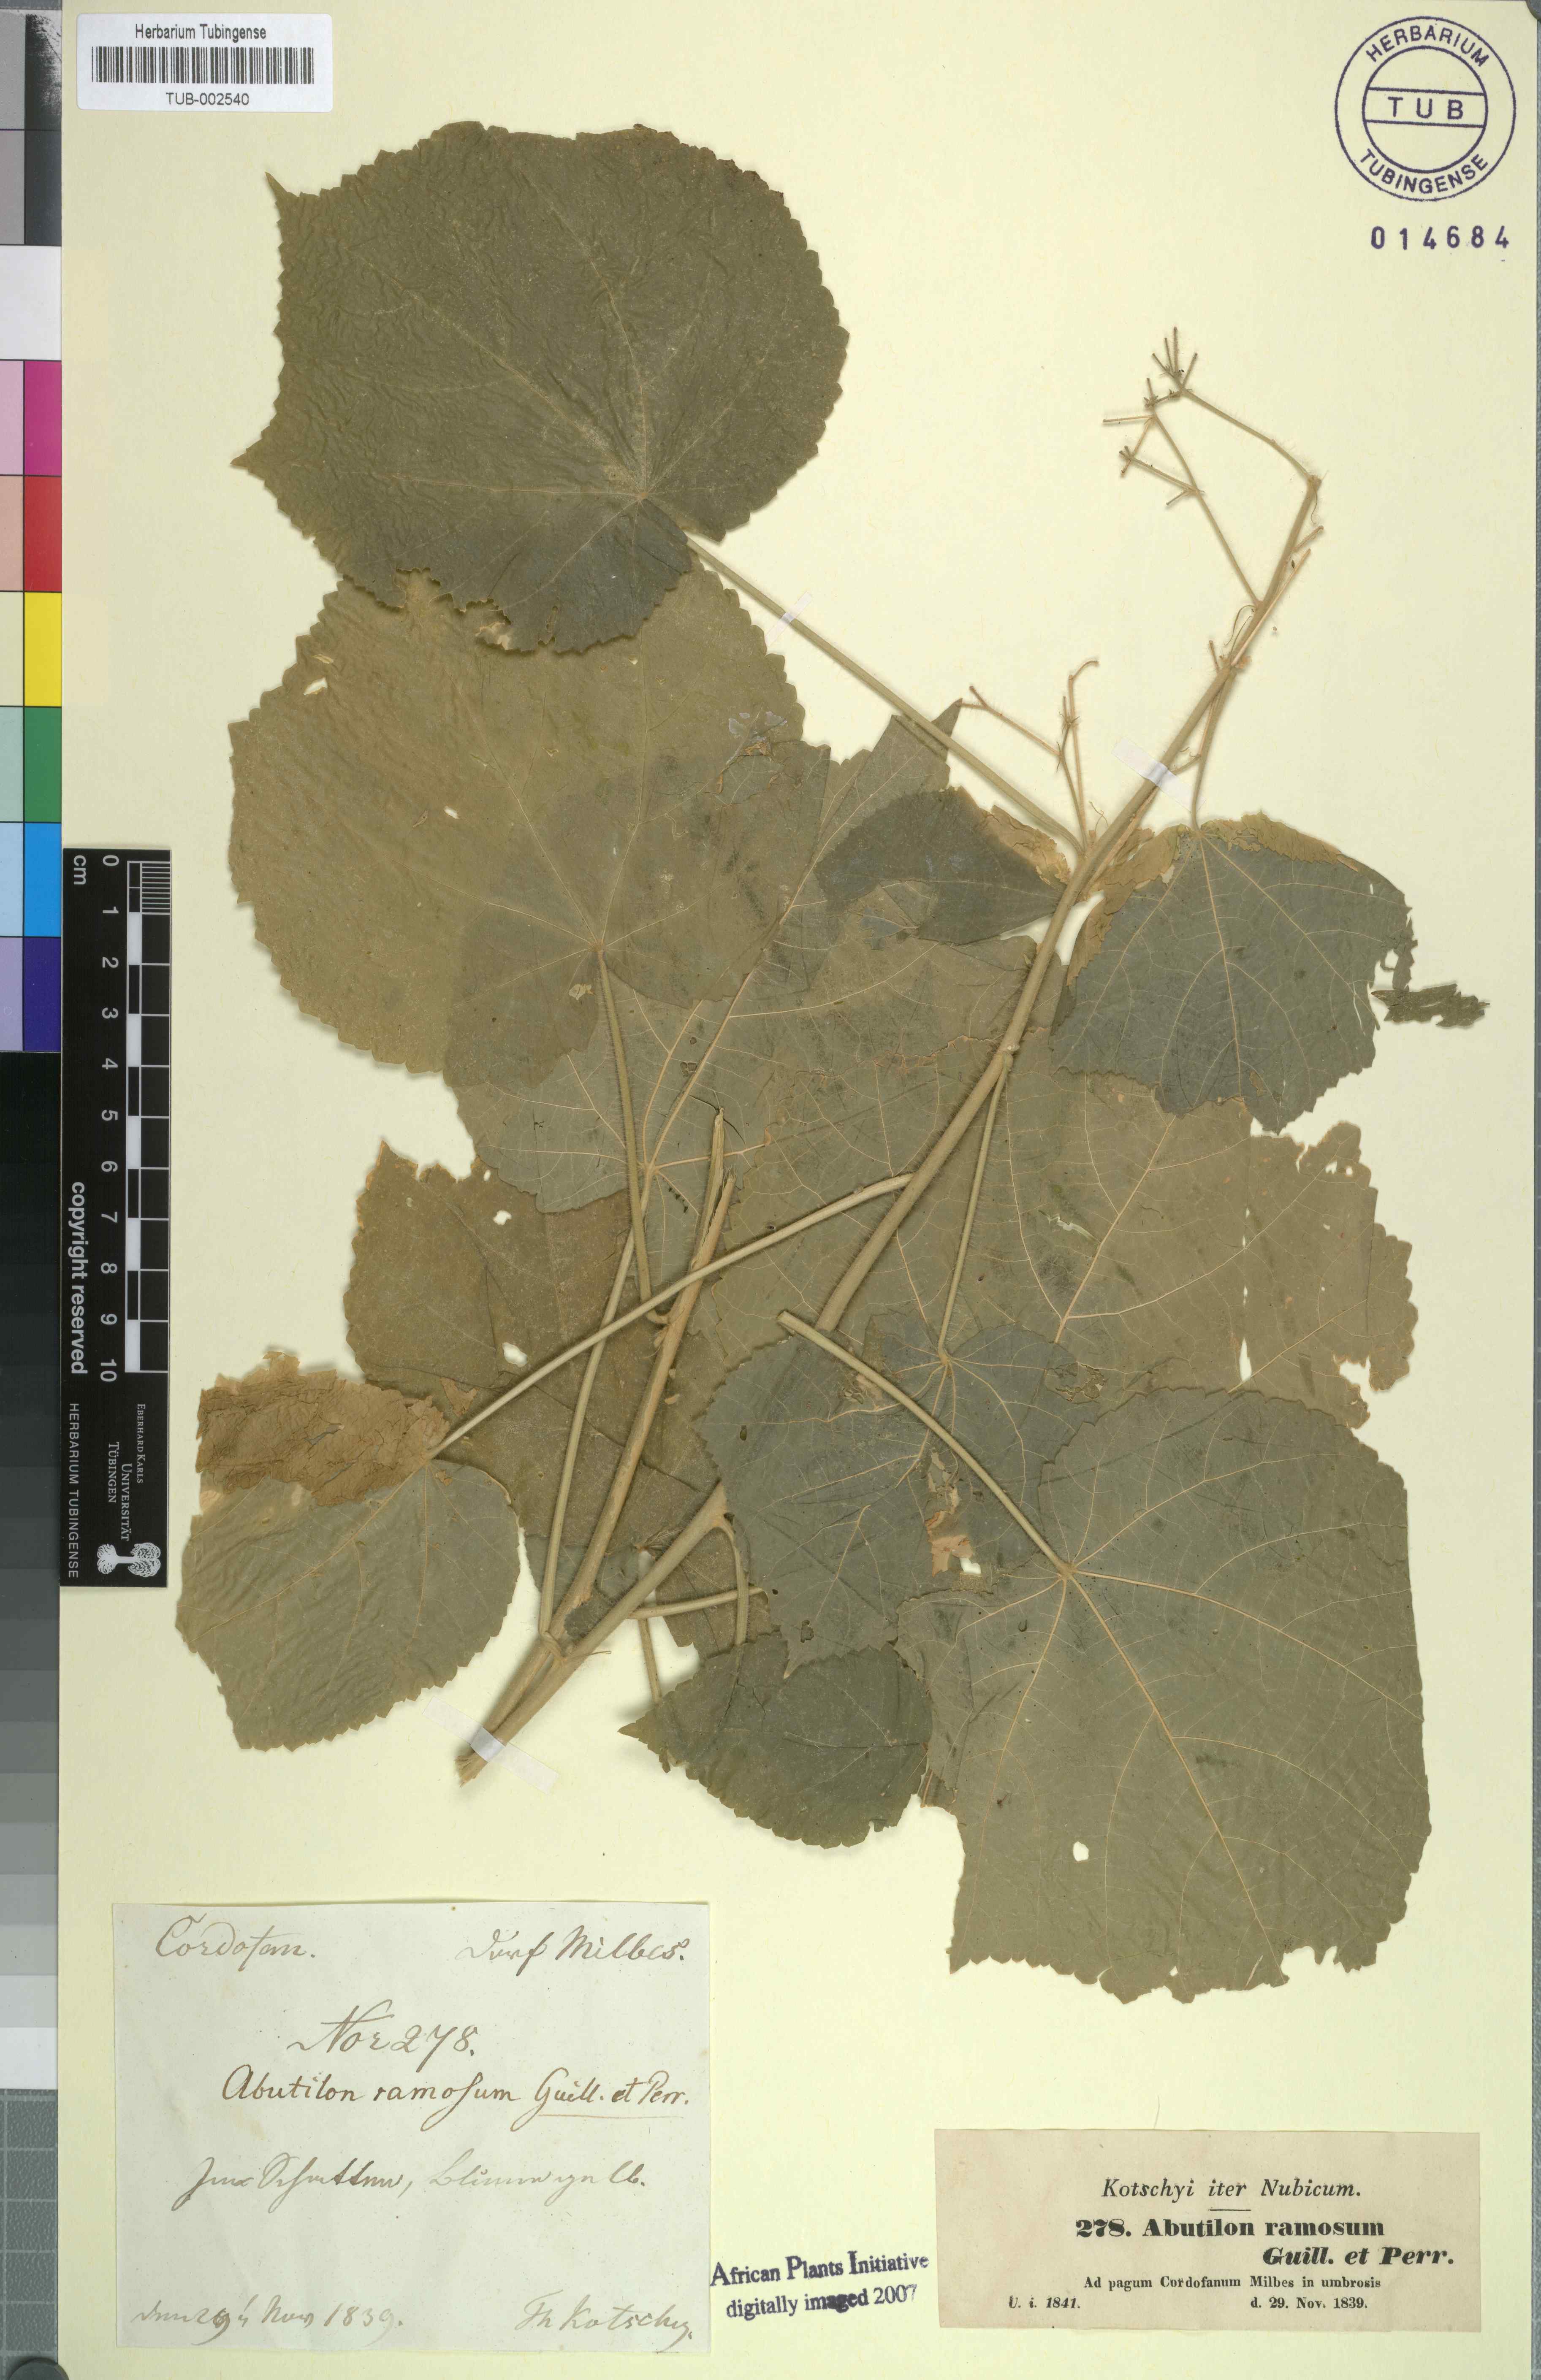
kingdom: Plantae
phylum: Tracheophyta
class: Magnoliopsida
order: Malvales
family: Malvaceae
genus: Abutilon
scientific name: Abutilon ramosum
